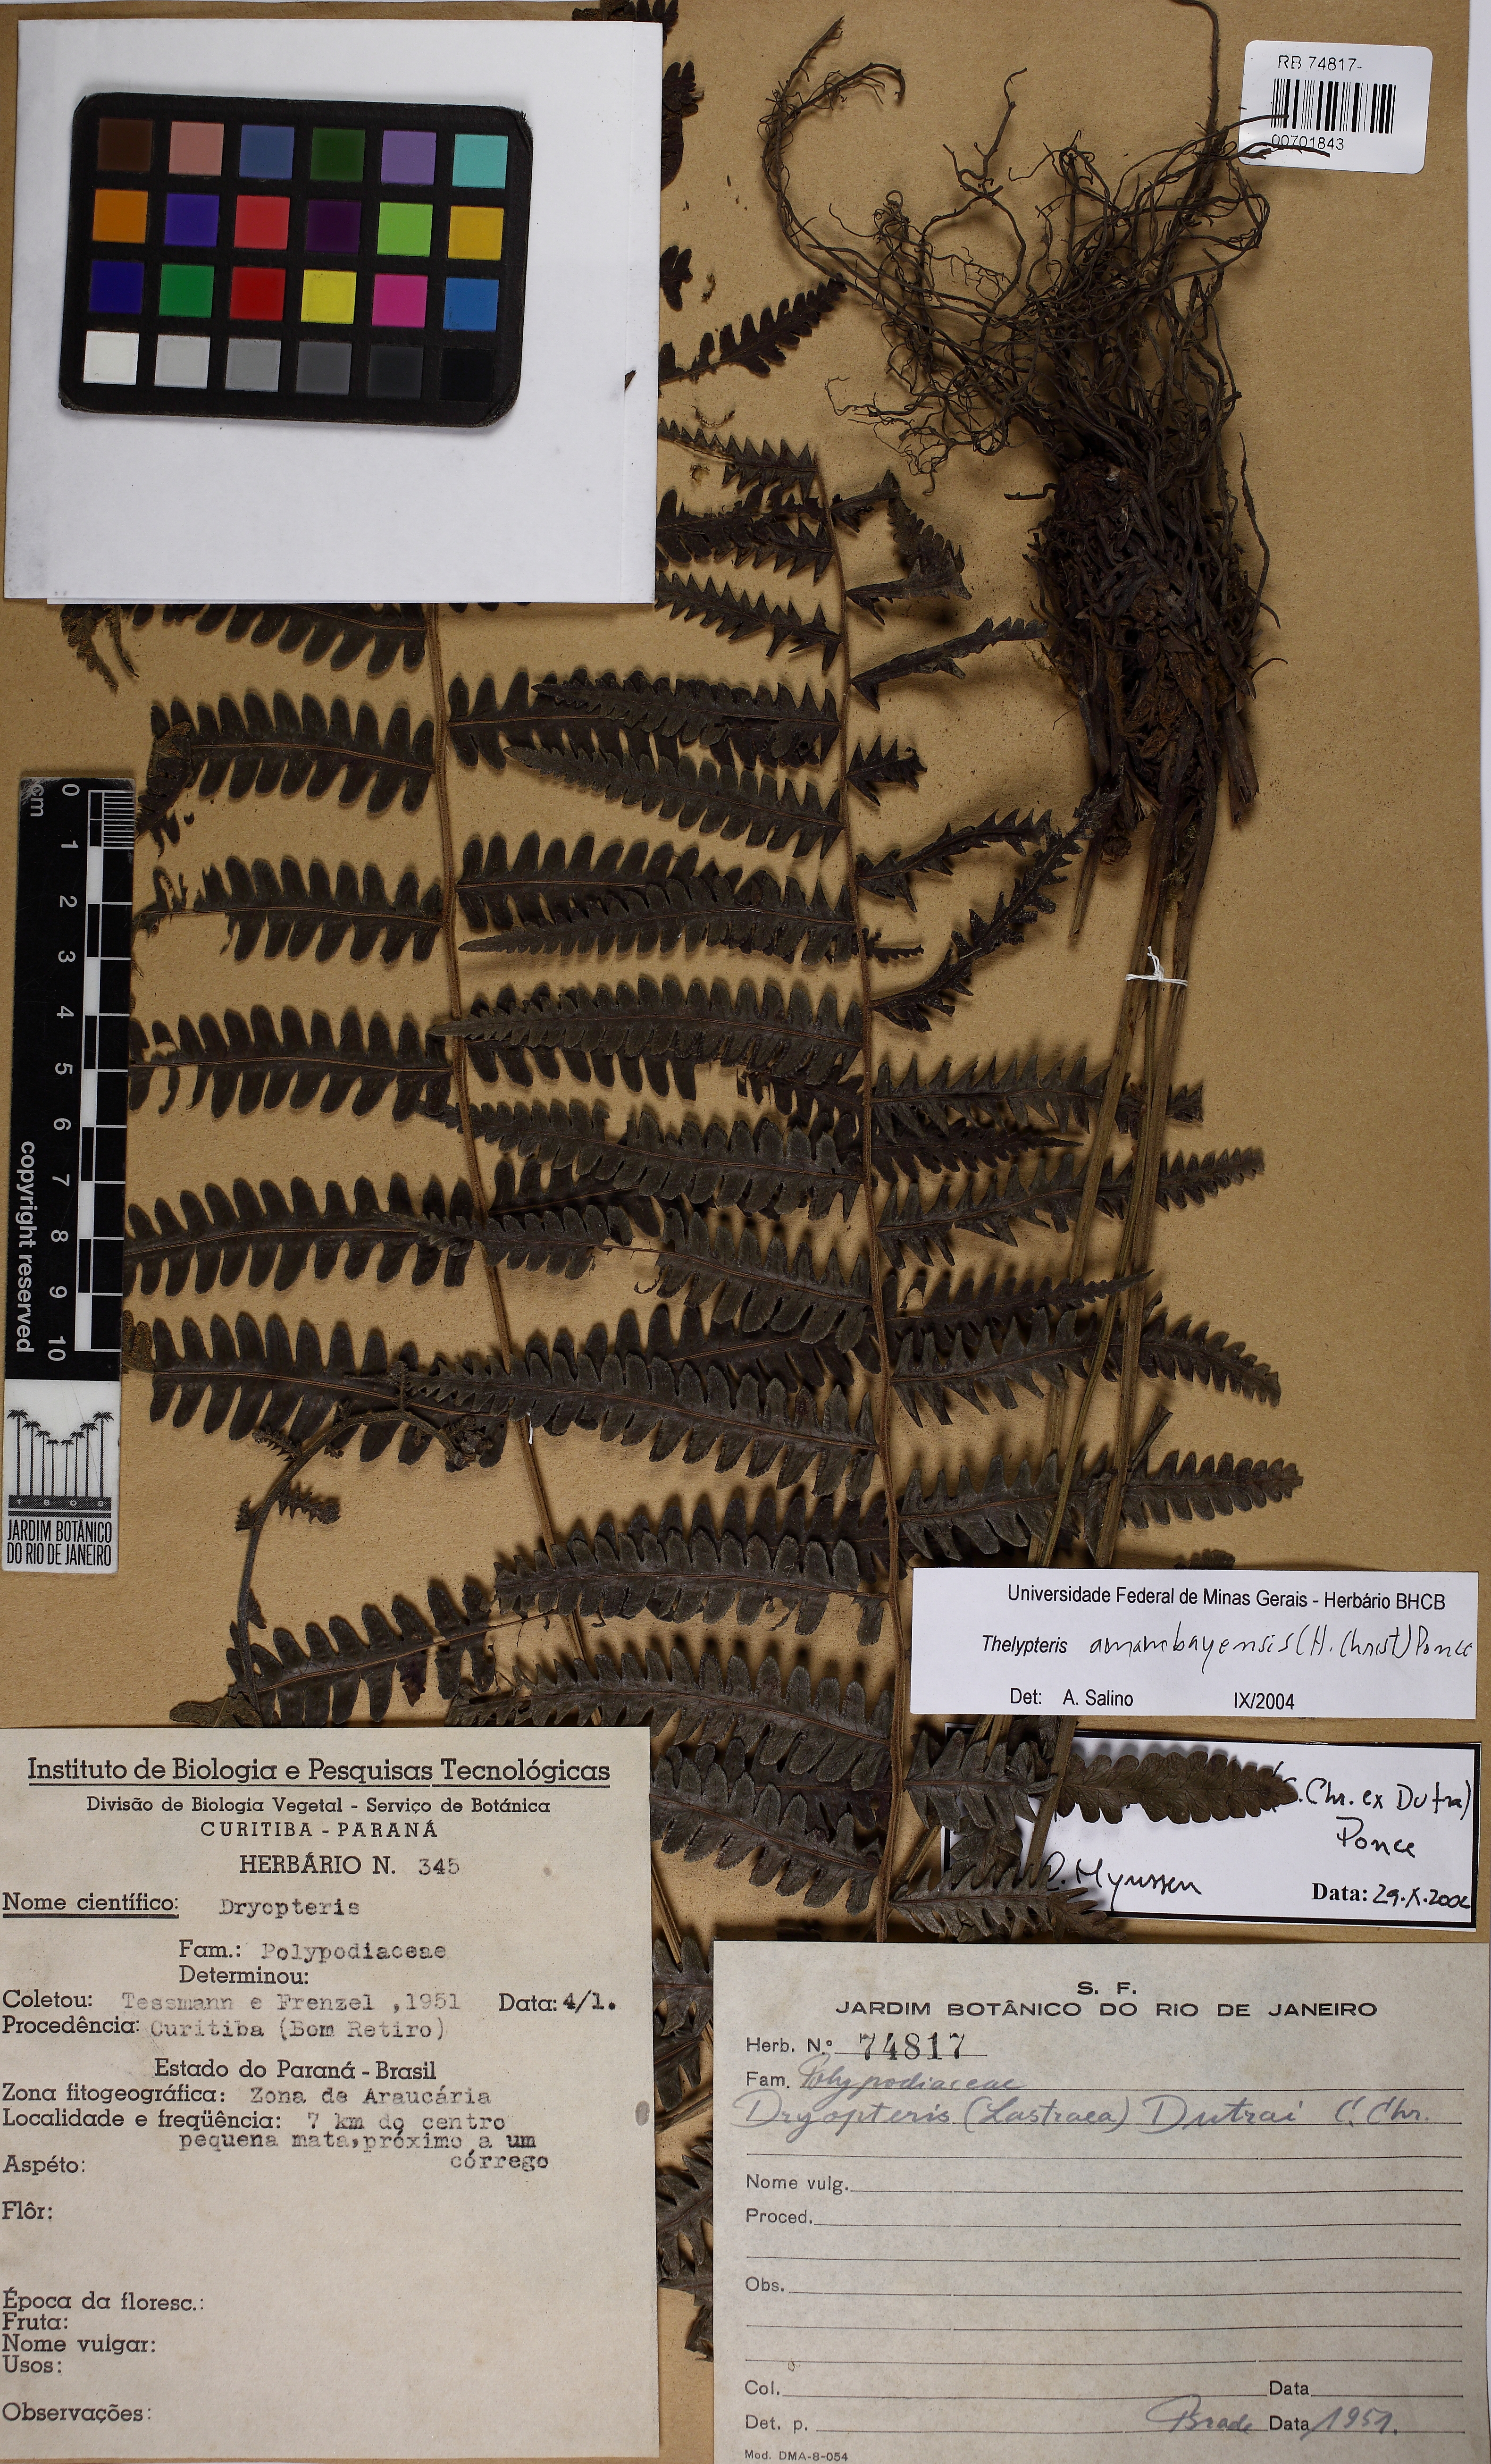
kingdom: Plantae
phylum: Tracheophyta
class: Polypodiopsida
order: Polypodiales
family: Thelypteridaceae
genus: Amauropelta
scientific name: Amauropelta amambayensis
